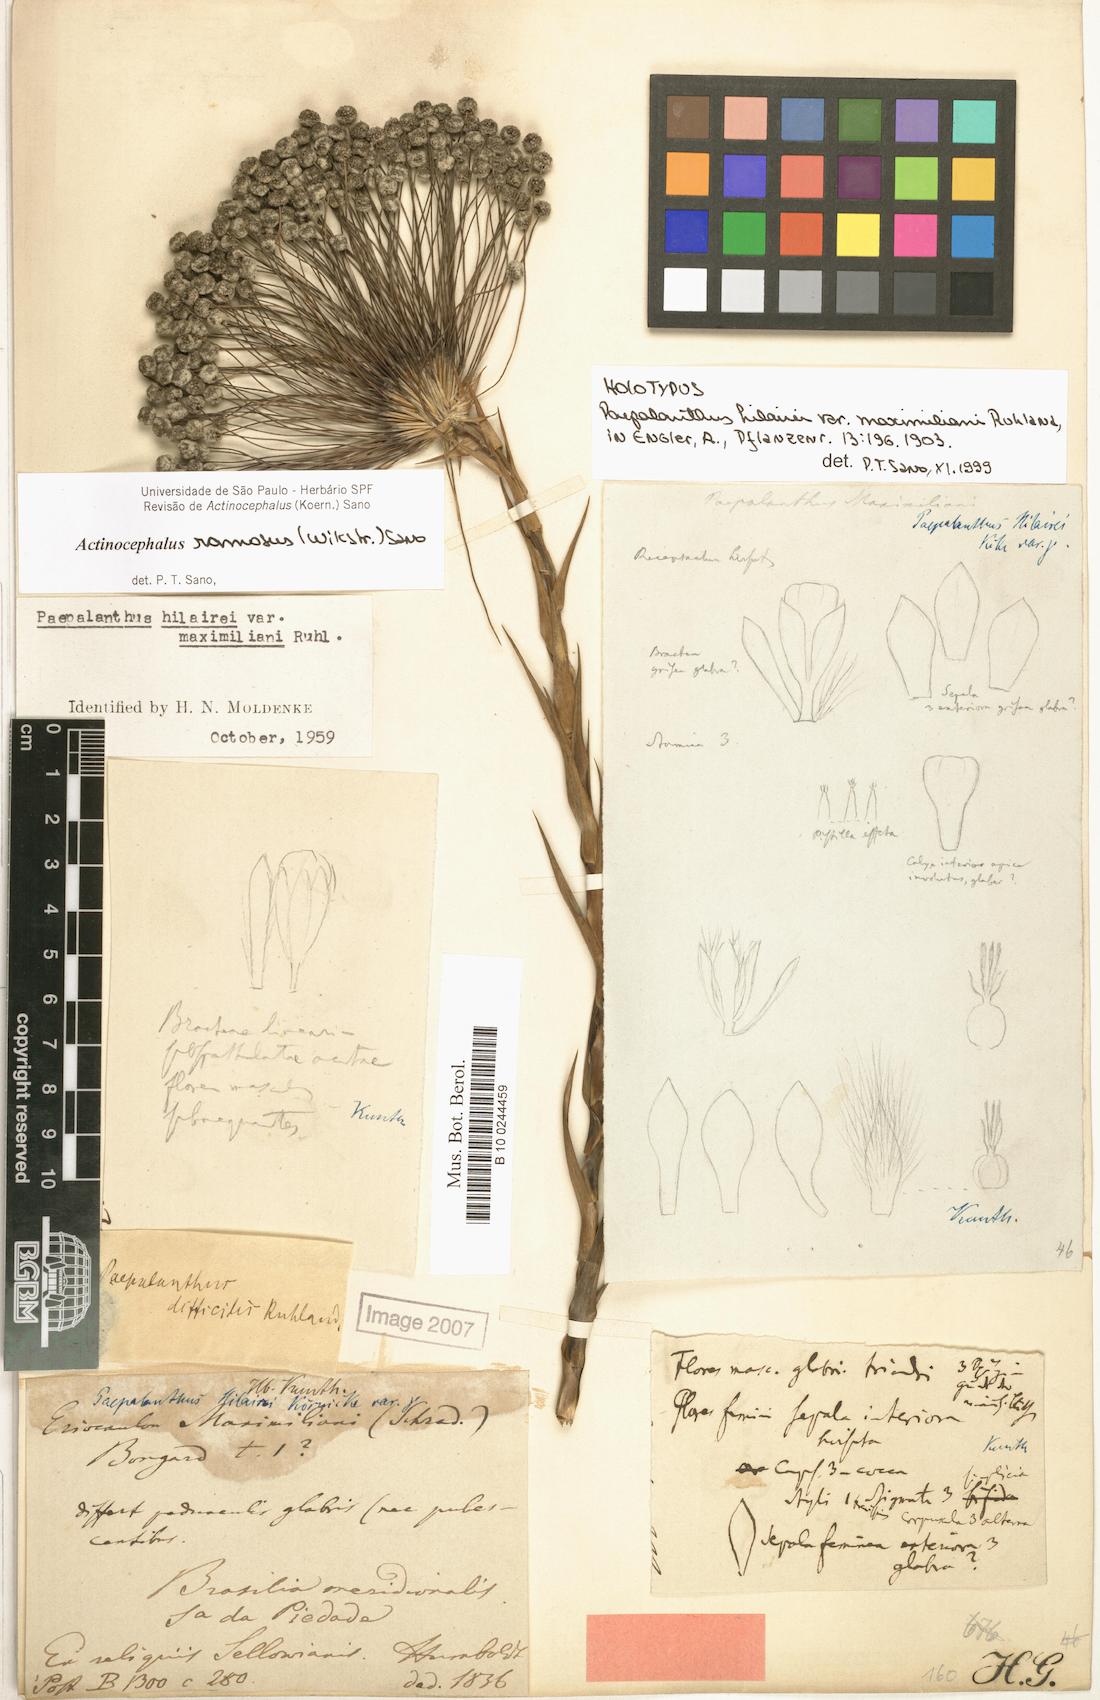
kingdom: Plantae
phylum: Tracheophyta
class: Liliopsida
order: Poales
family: Eriocaulaceae
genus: Paepalanthus
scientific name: Paepalanthus ramosus
